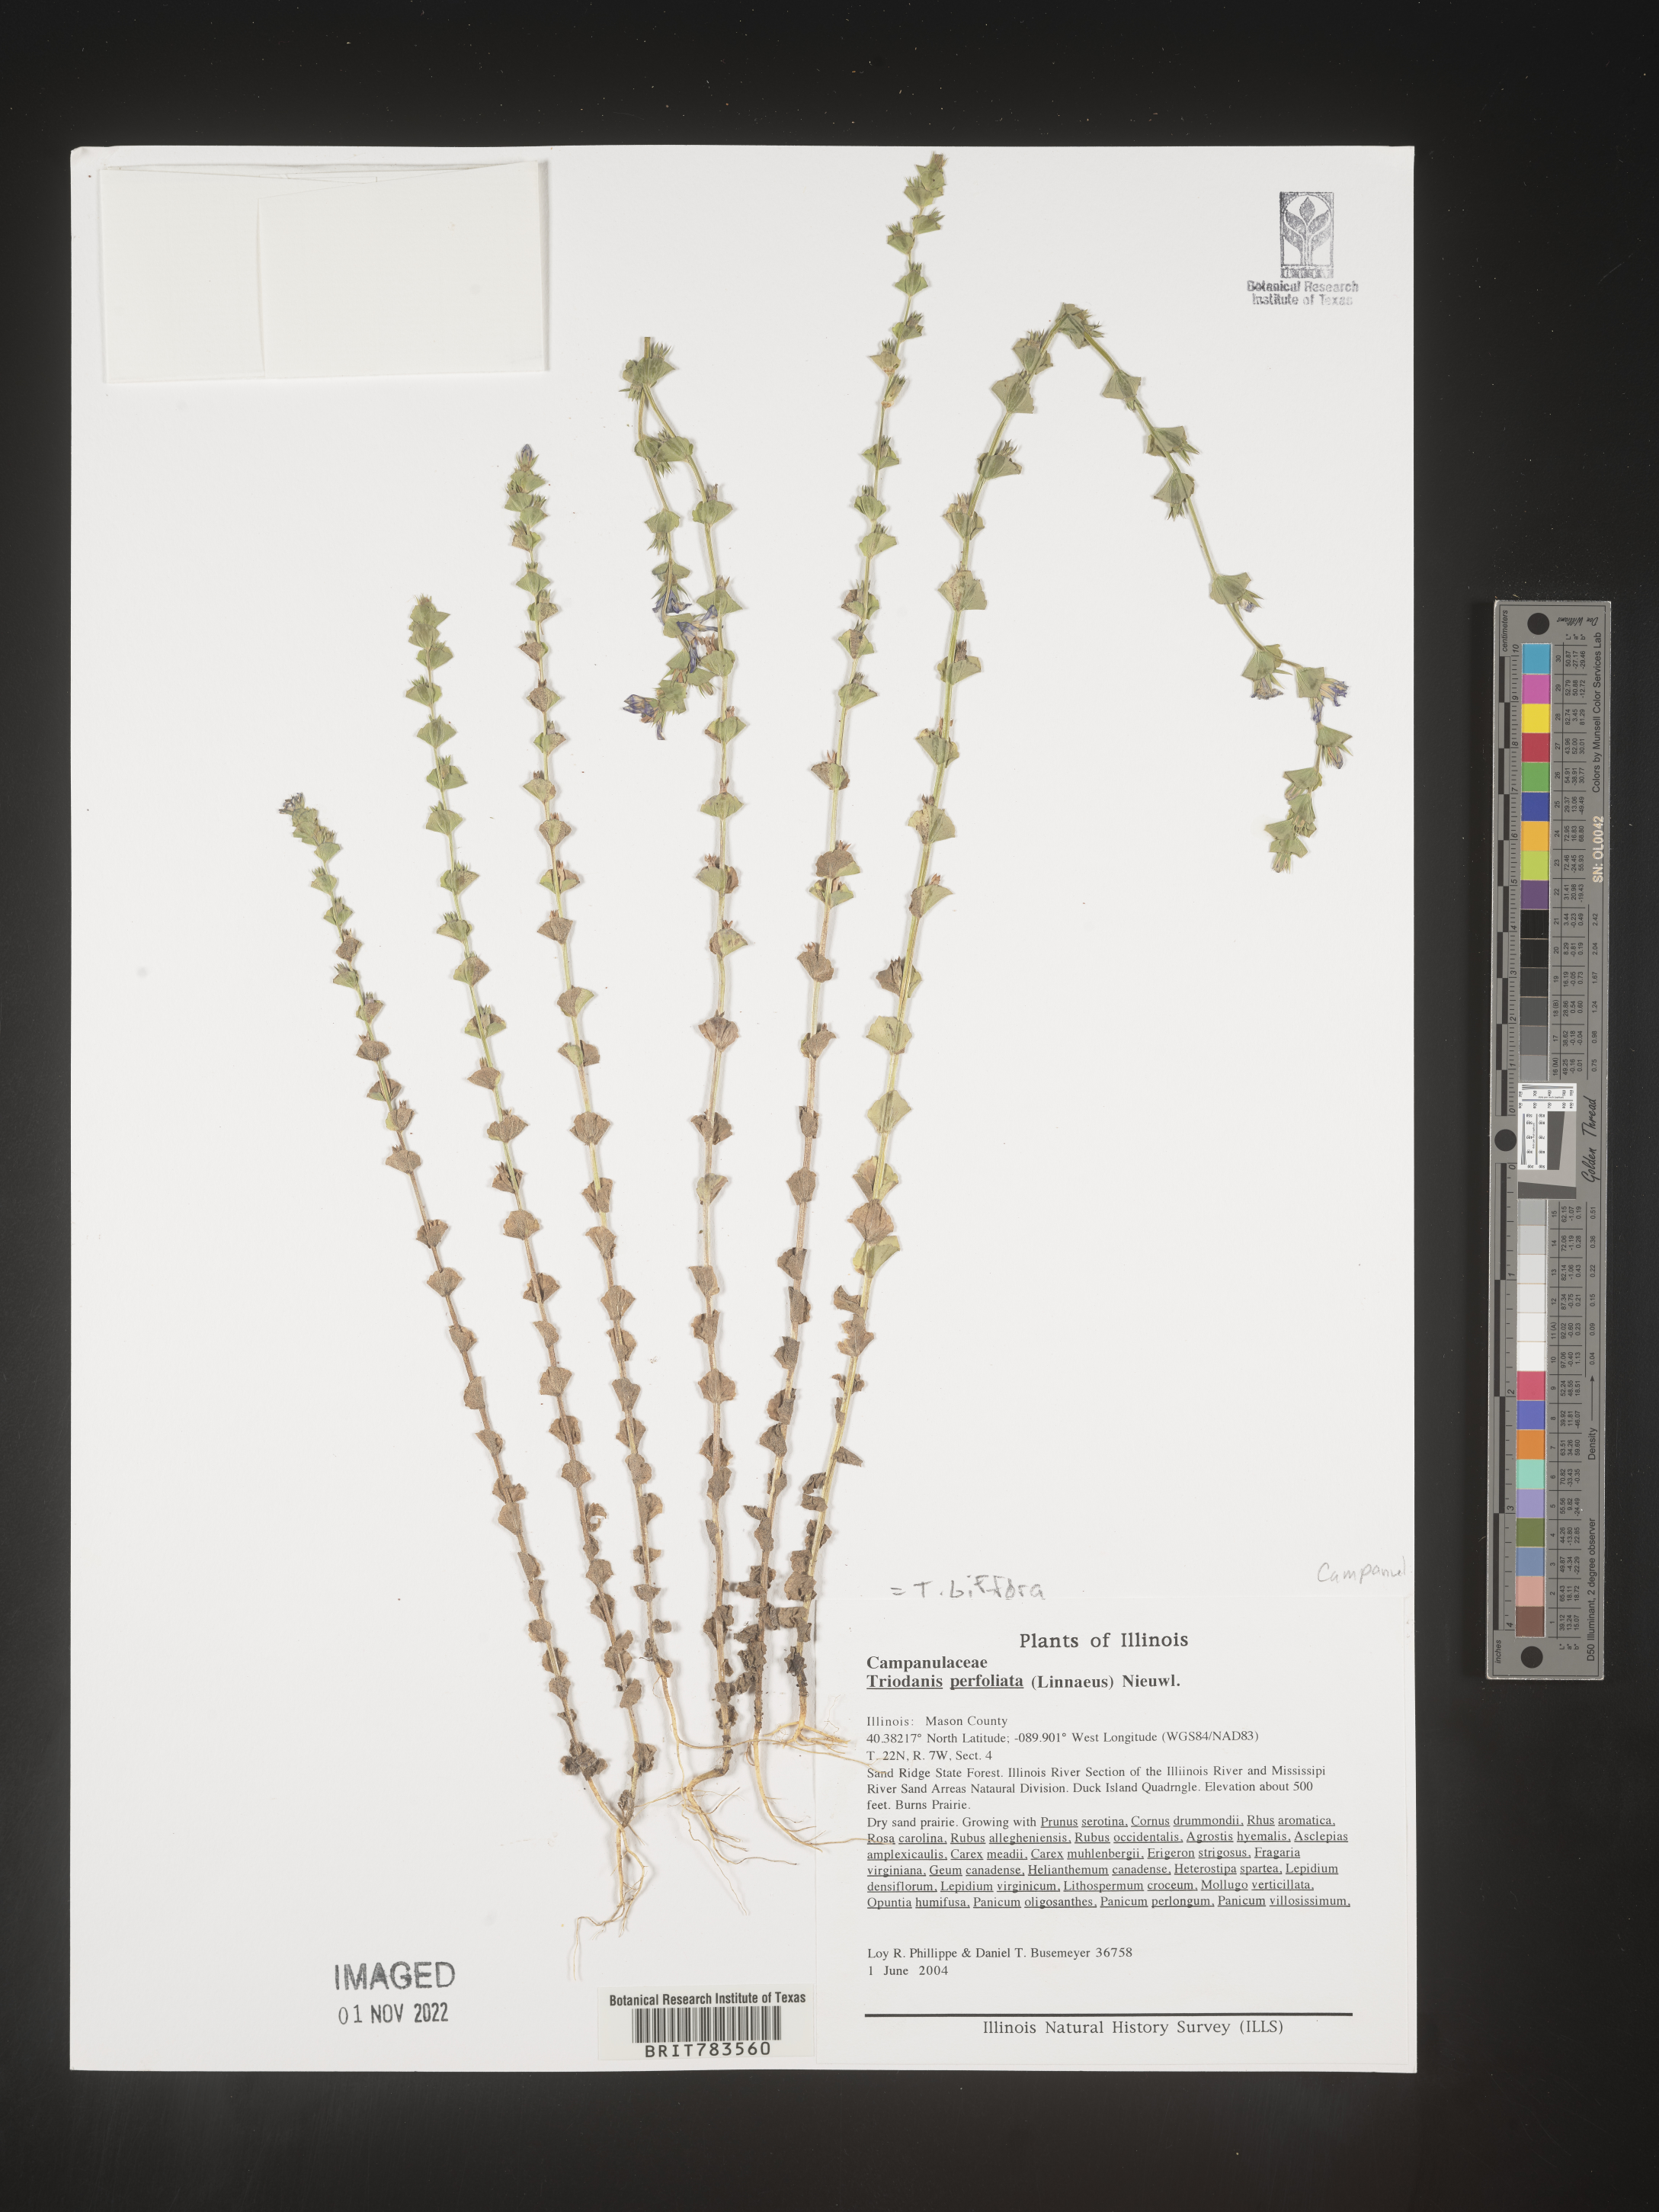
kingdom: Plantae
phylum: Tracheophyta
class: Magnoliopsida
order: Asterales
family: Campanulaceae
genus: Triodanis
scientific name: Triodanis perfoliata
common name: Clasping venus' looking-glass
